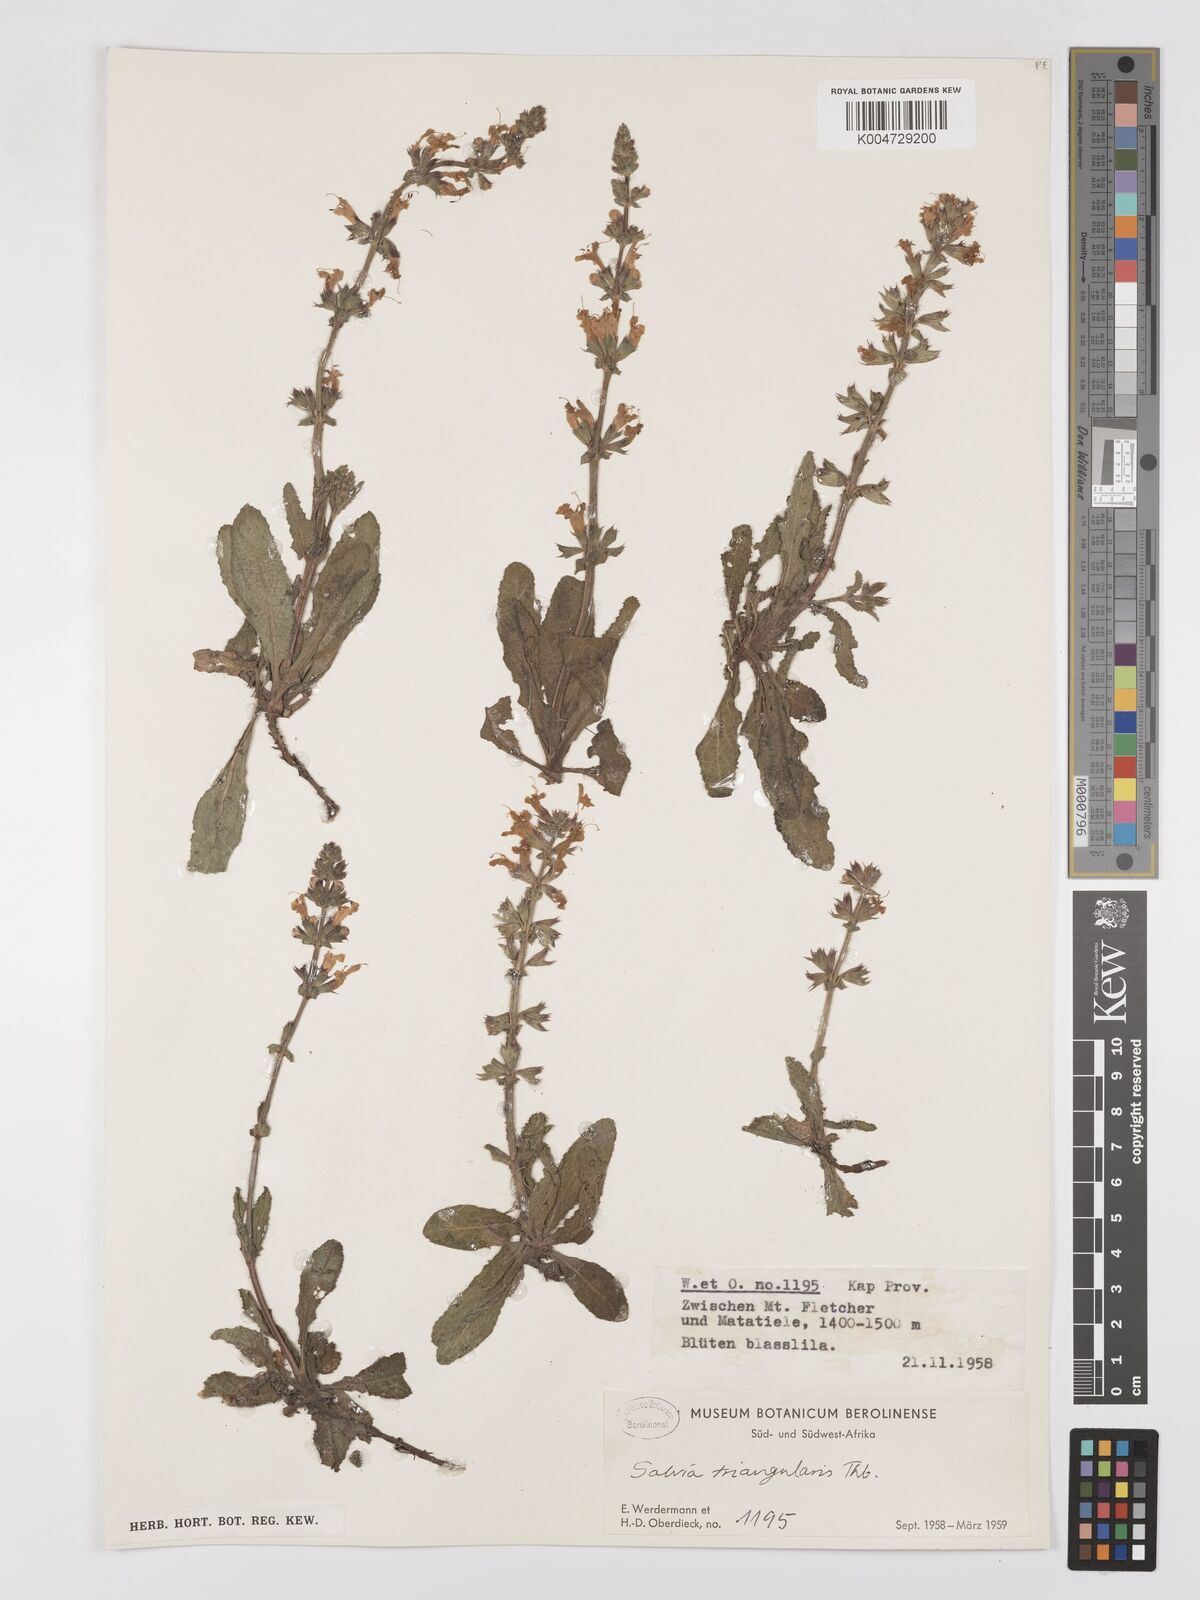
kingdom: Plantae
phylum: Tracheophyta
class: Magnoliopsida
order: Lamiales
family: Lamiaceae
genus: Salvia
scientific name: Salvia triangularis
